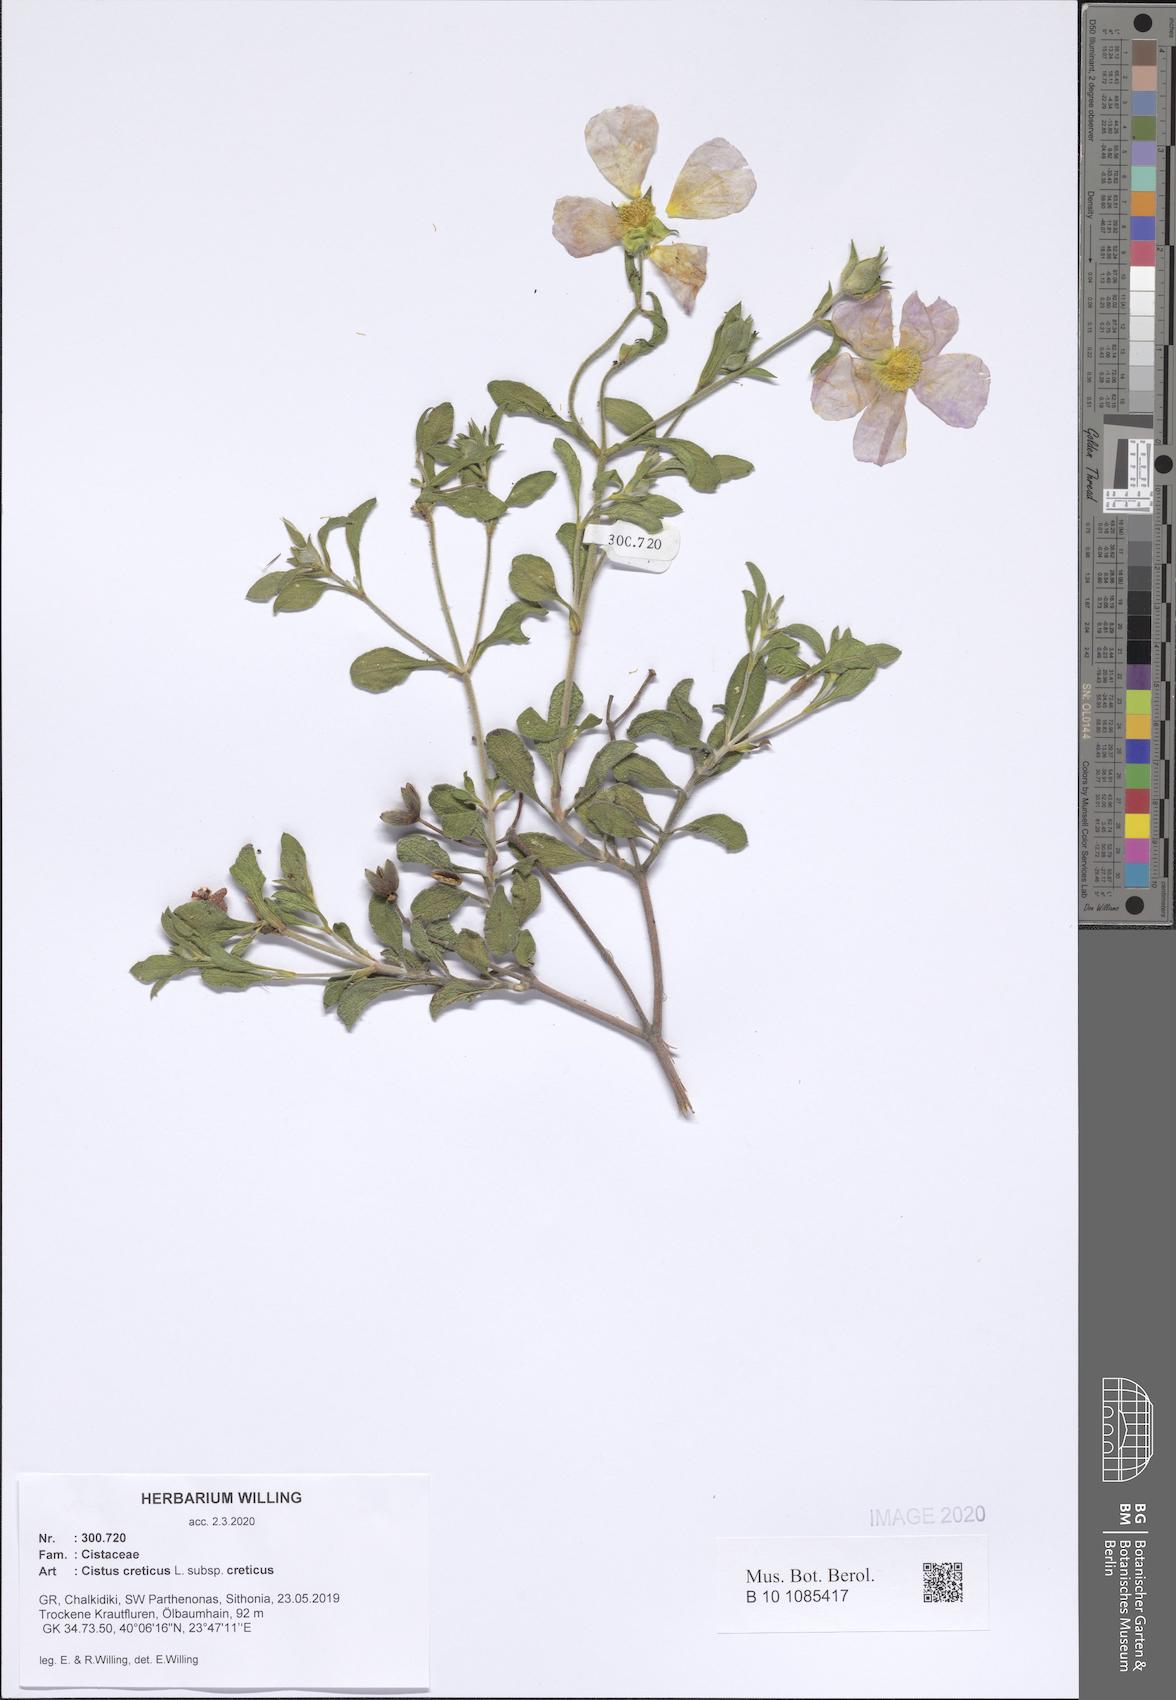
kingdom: Plantae
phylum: Tracheophyta
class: Magnoliopsida
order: Malvales
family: Cistaceae
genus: Cistus
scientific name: Cistus creticus
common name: Cretan rockrose
